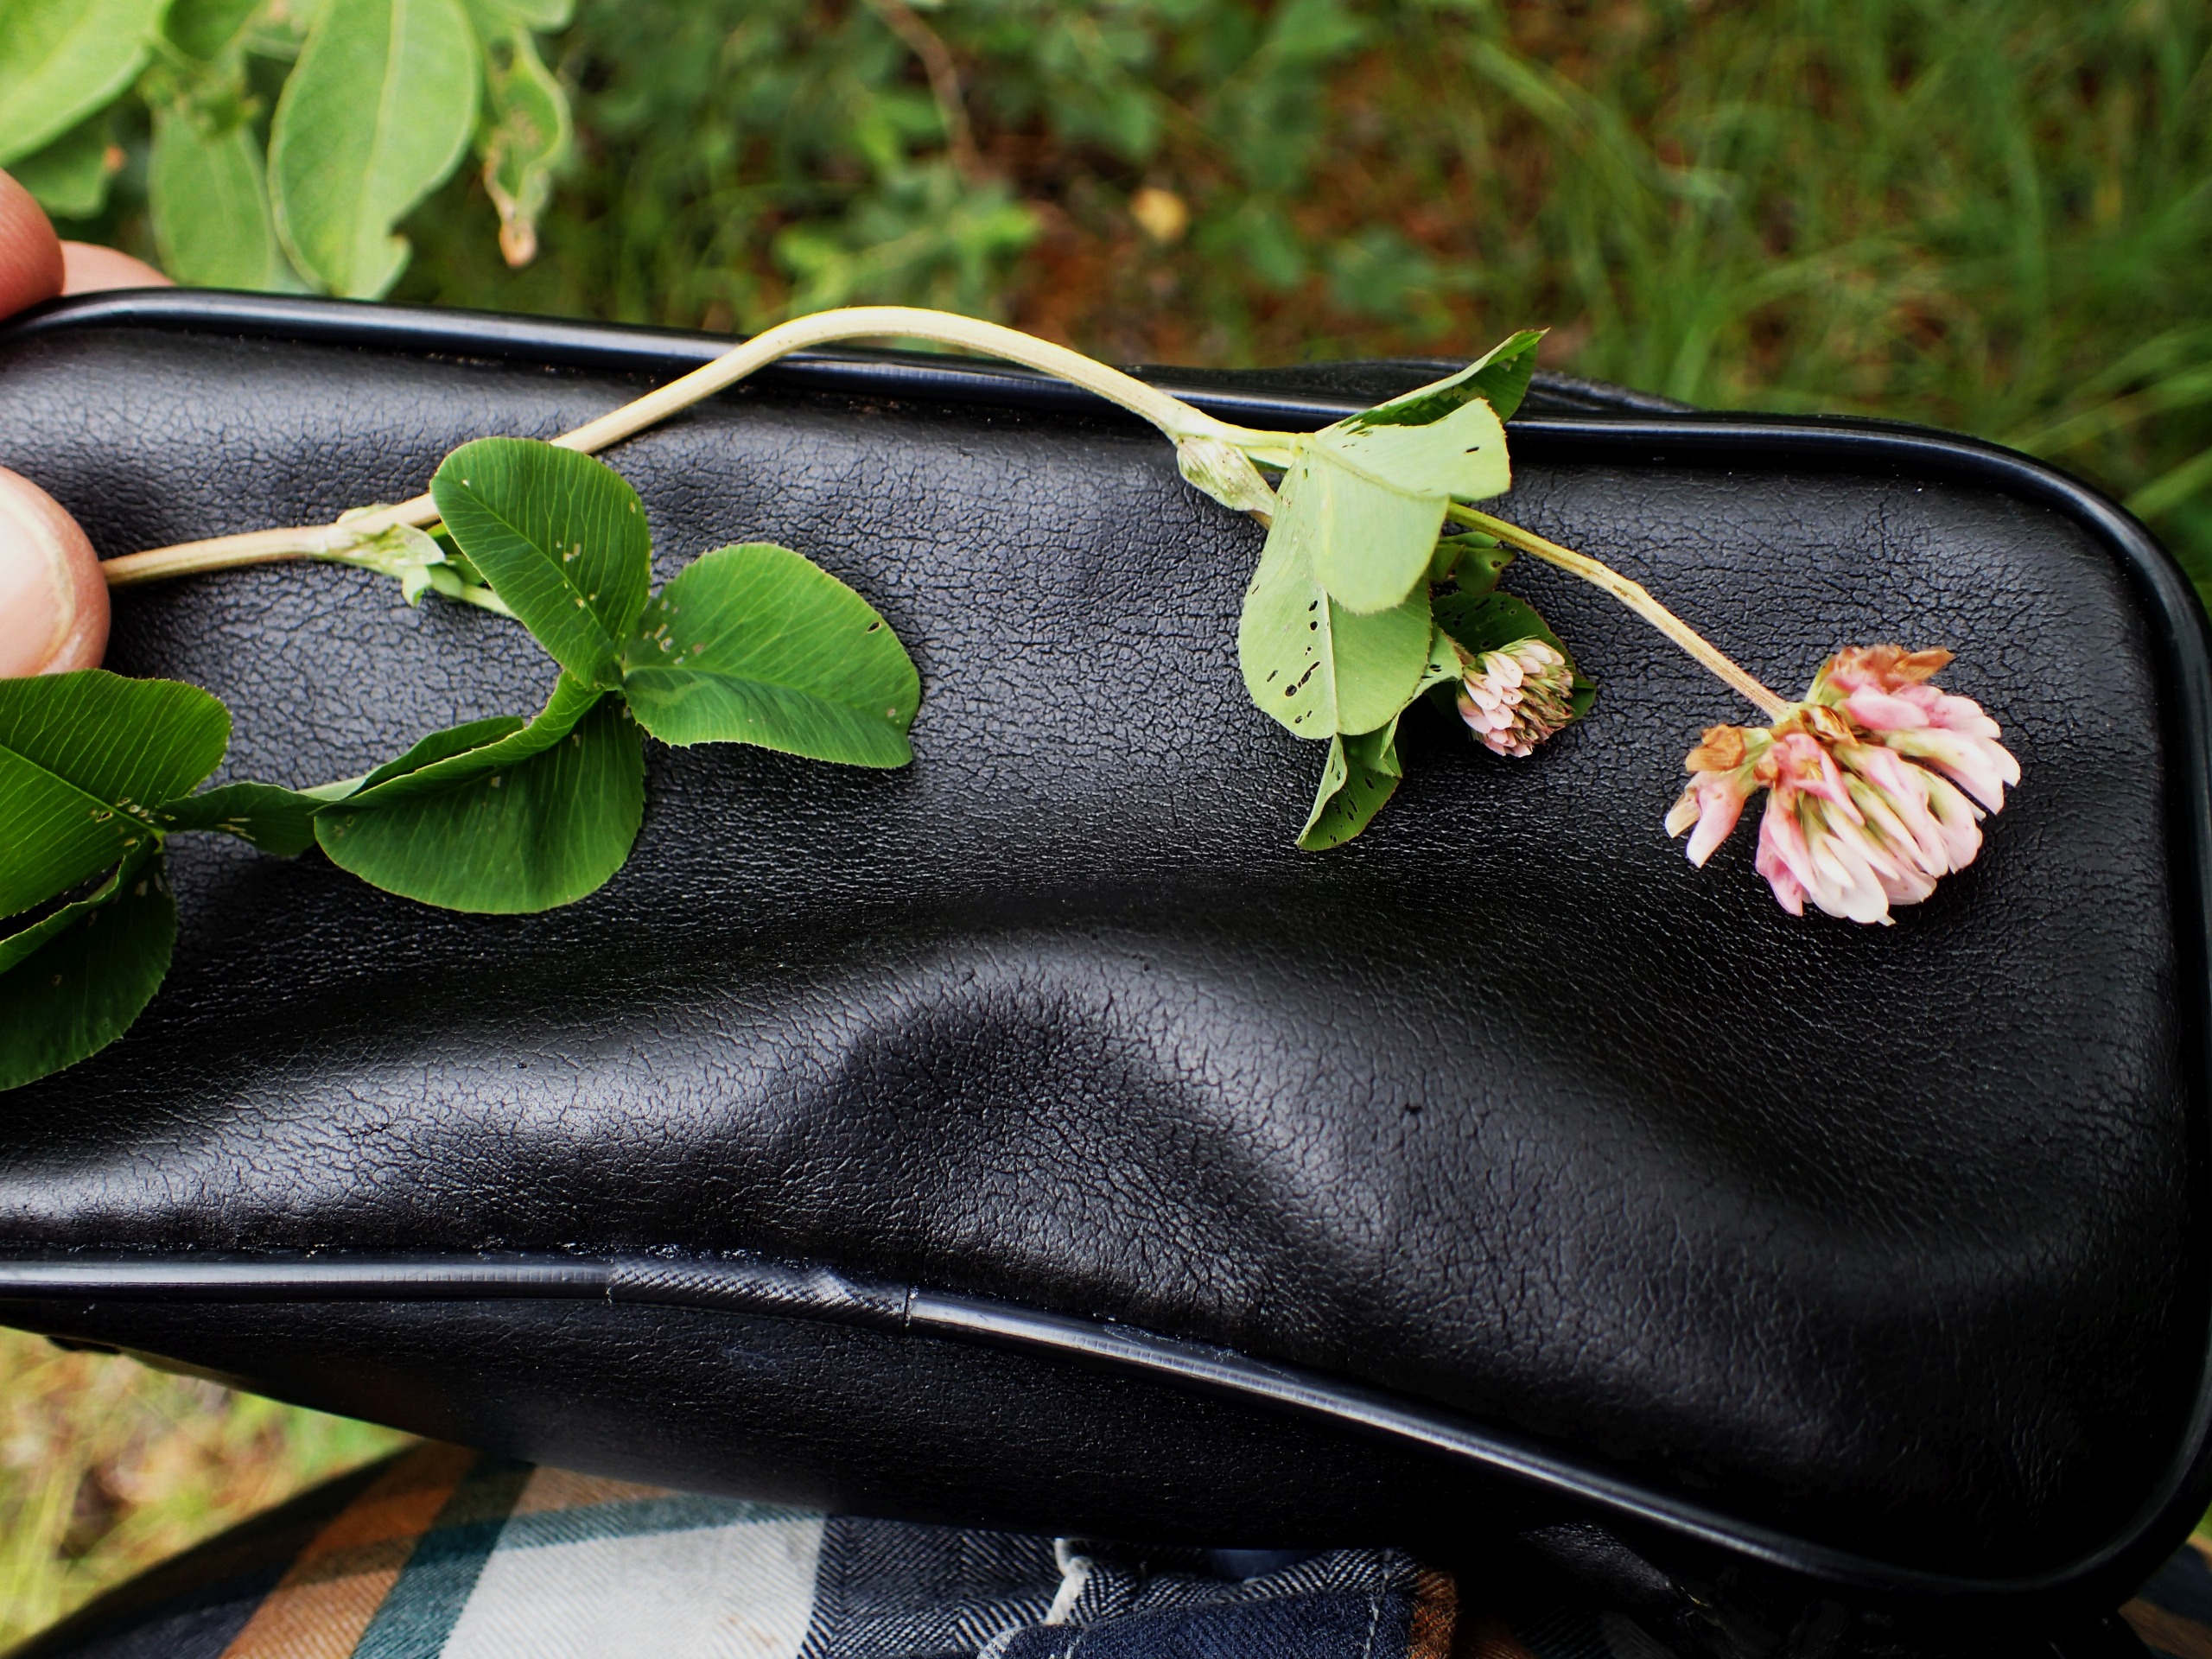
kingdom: Plantae
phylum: Tracheophyta
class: Magnoliopsida
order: Fabales
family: Fabaceae
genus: Trifolium
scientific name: Trifolium hybridum
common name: Alsike-kløver
